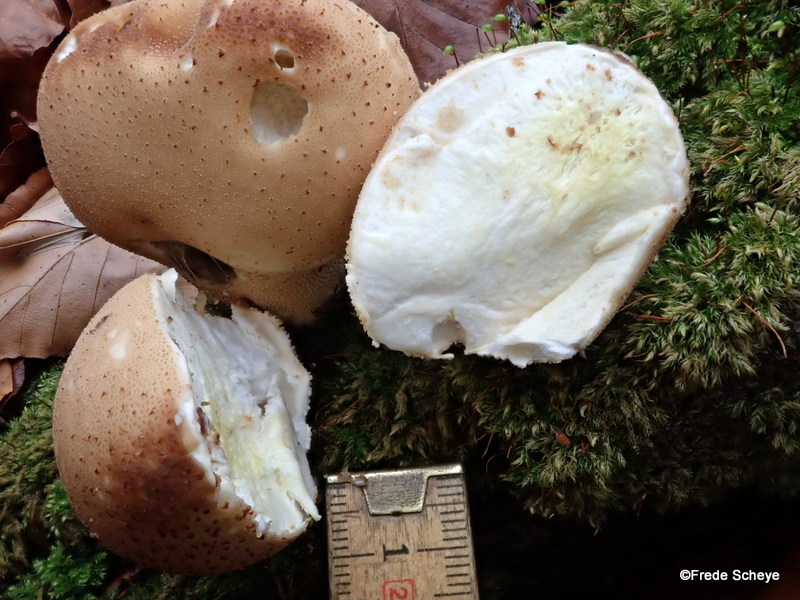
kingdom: Fungi
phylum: Basidiomycota
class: Agaricomycetes
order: Agaricales
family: Lycoperdaceae
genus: Apioperdon
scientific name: Apioperdon pyriforme
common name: pære-støvbold
